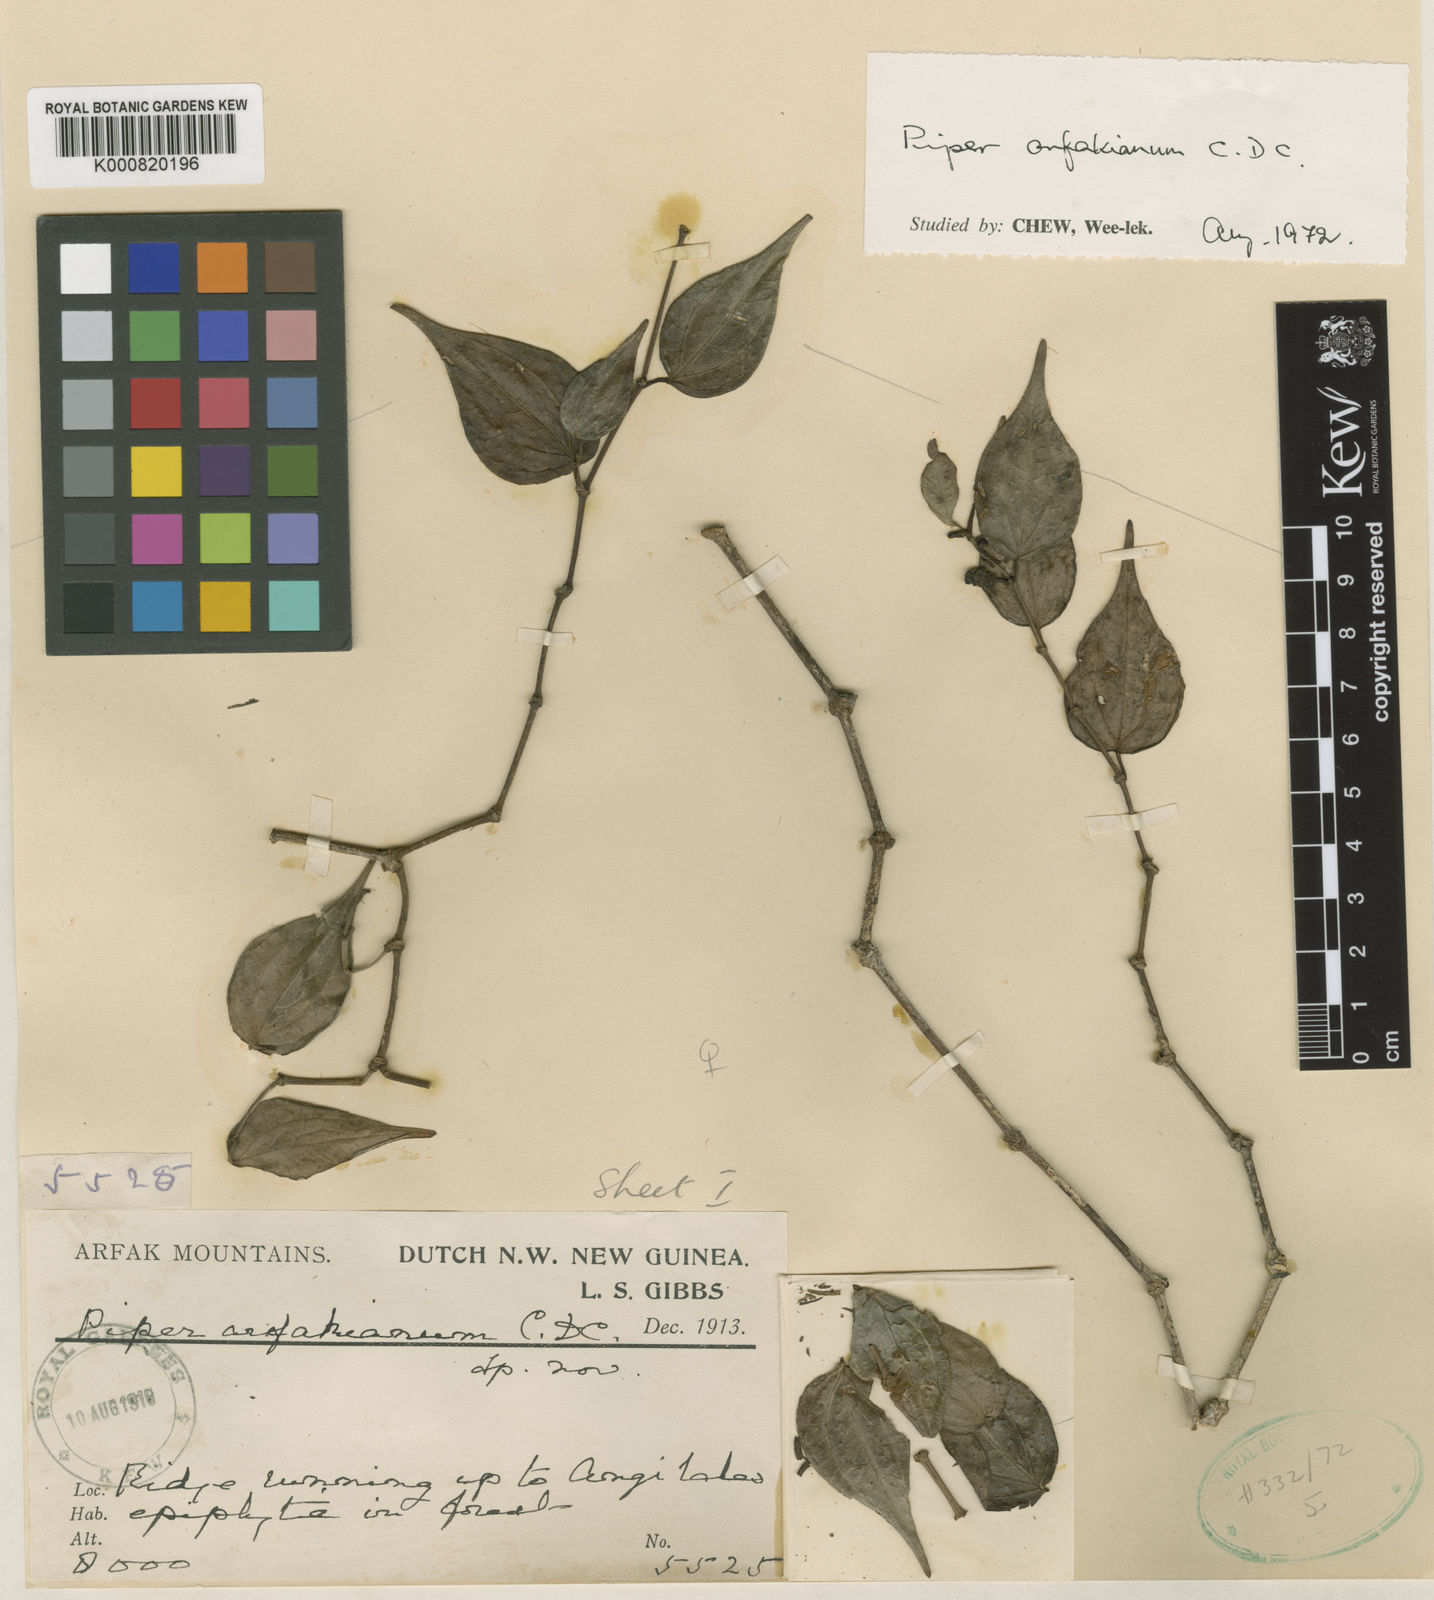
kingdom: Plantae
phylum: Tracheophyta
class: Magnoliopsida
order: Piperales
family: Piperaceae
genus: Piper
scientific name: Piper arfakianum
